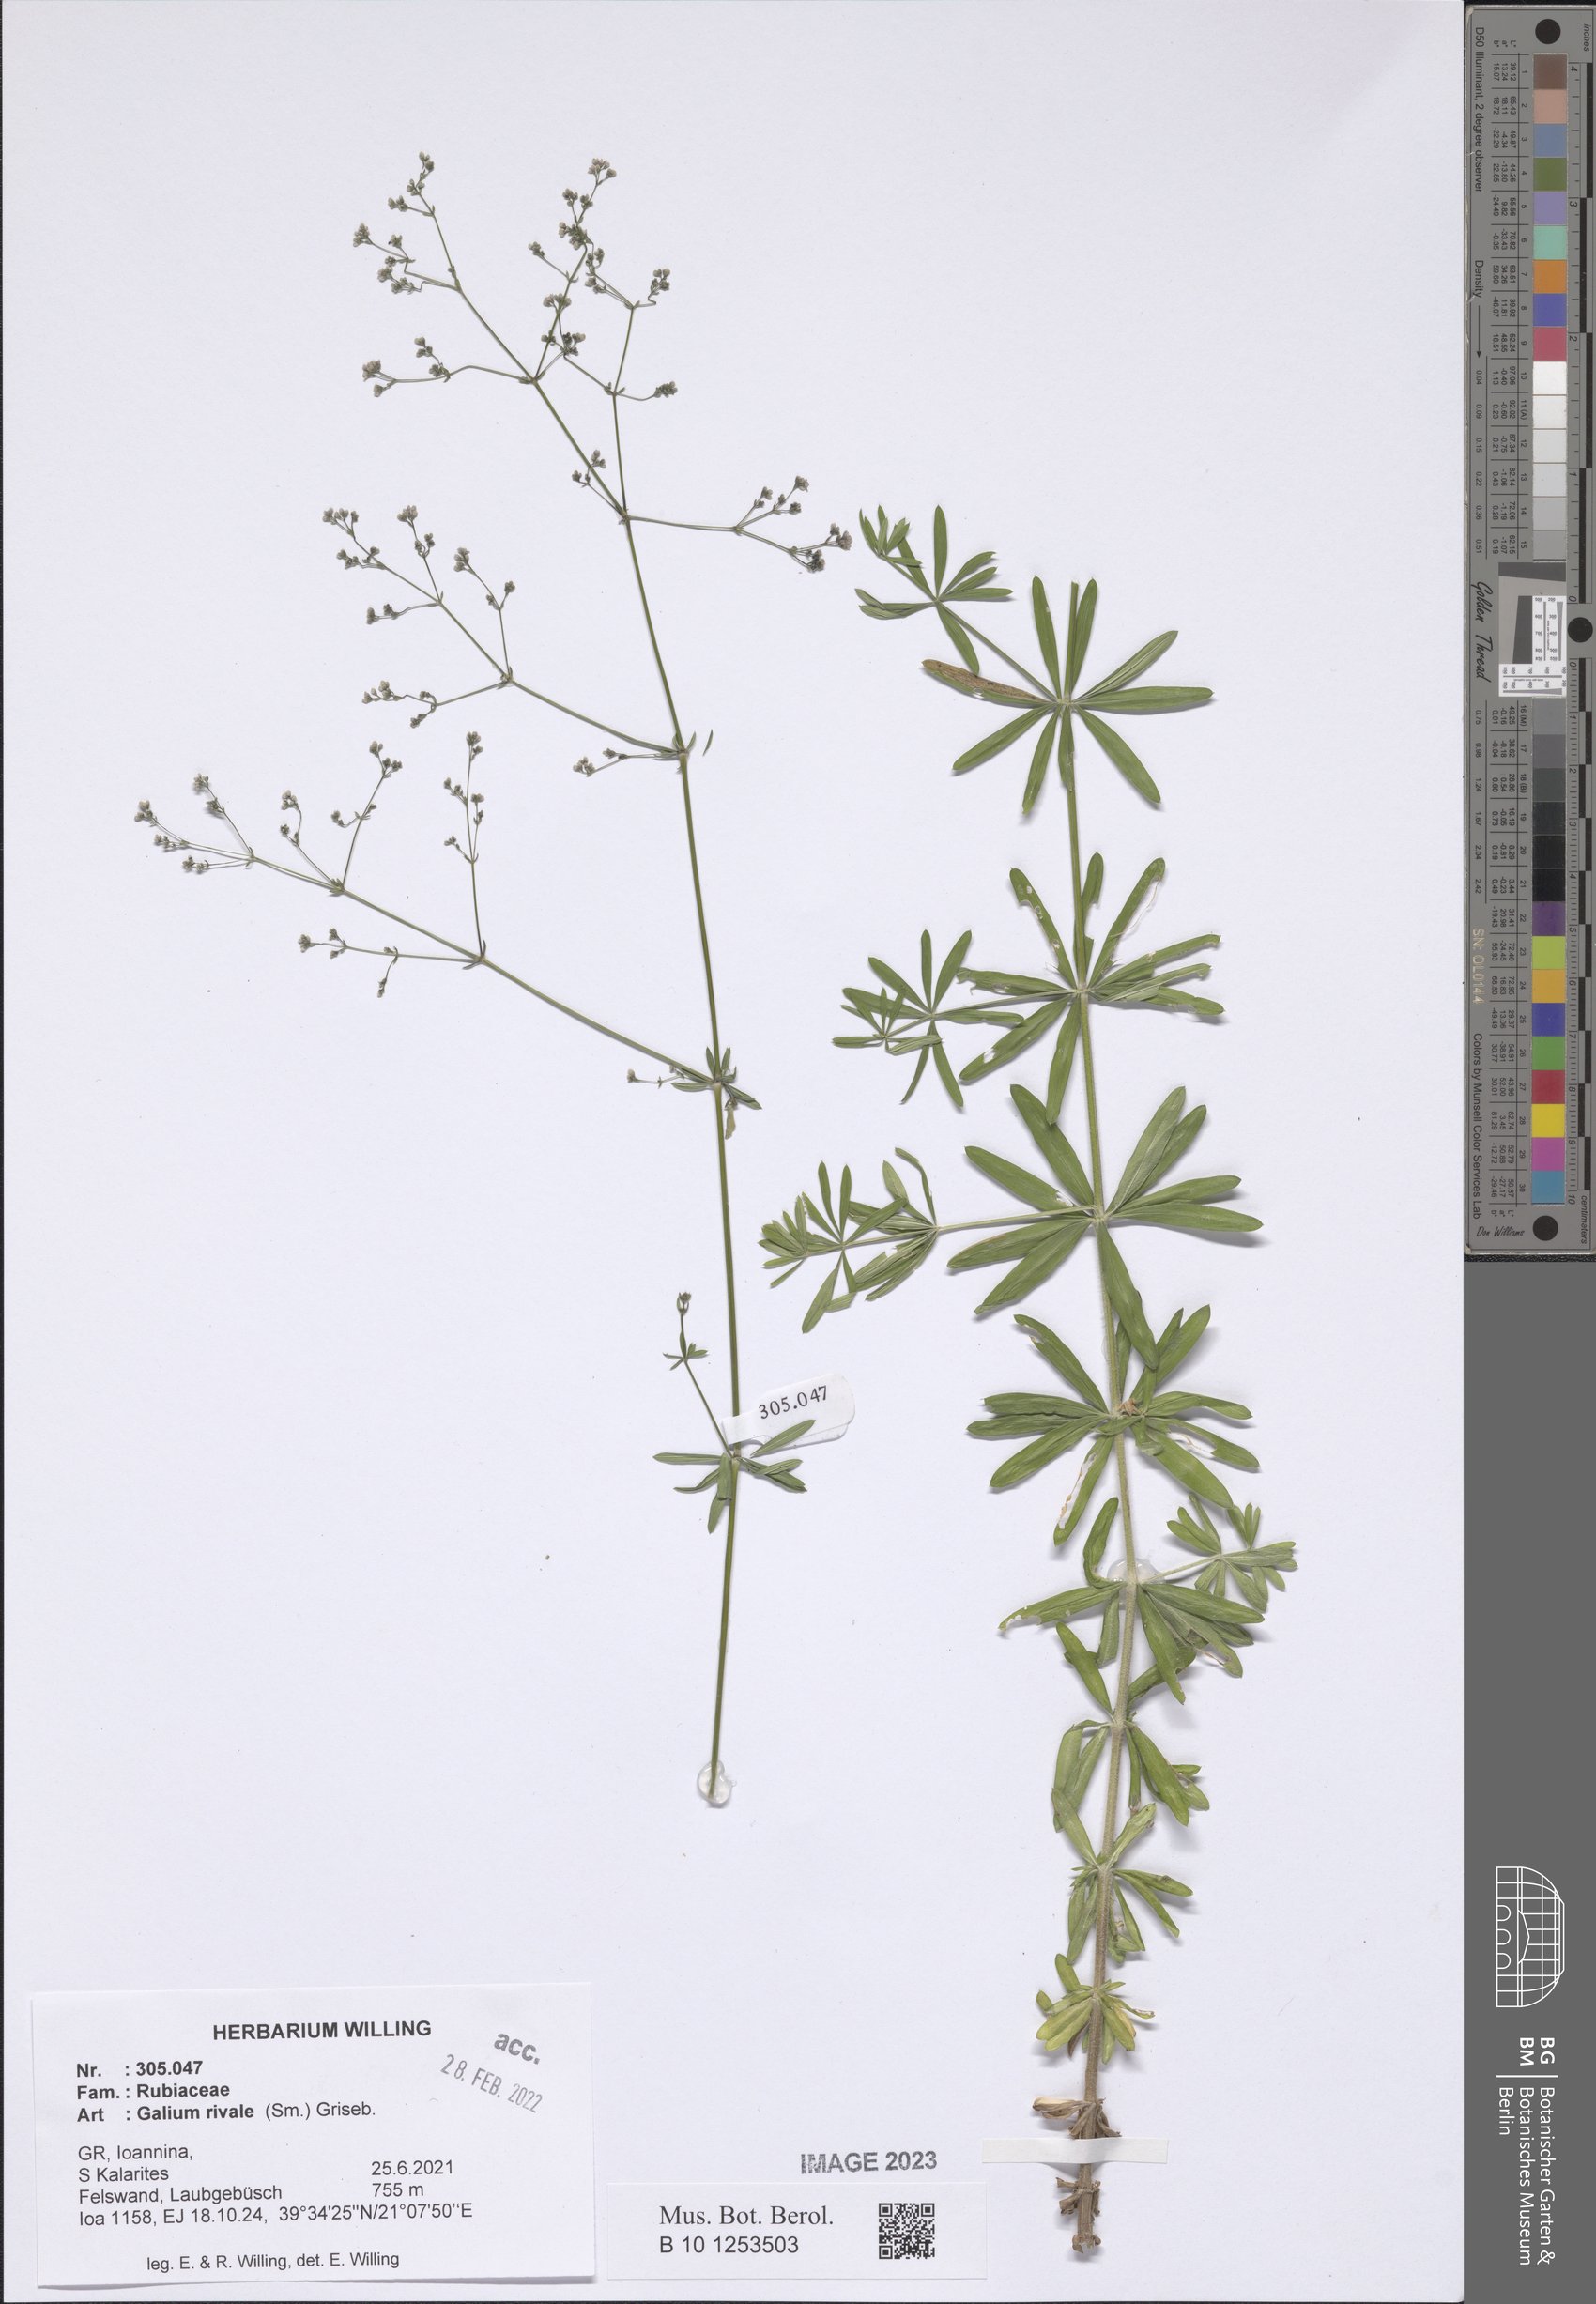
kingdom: Plantae
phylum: Tracheophyta
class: Magnoliopsida
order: Gentianales
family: Rubiaceae
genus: Galium
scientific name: Galium rivale
